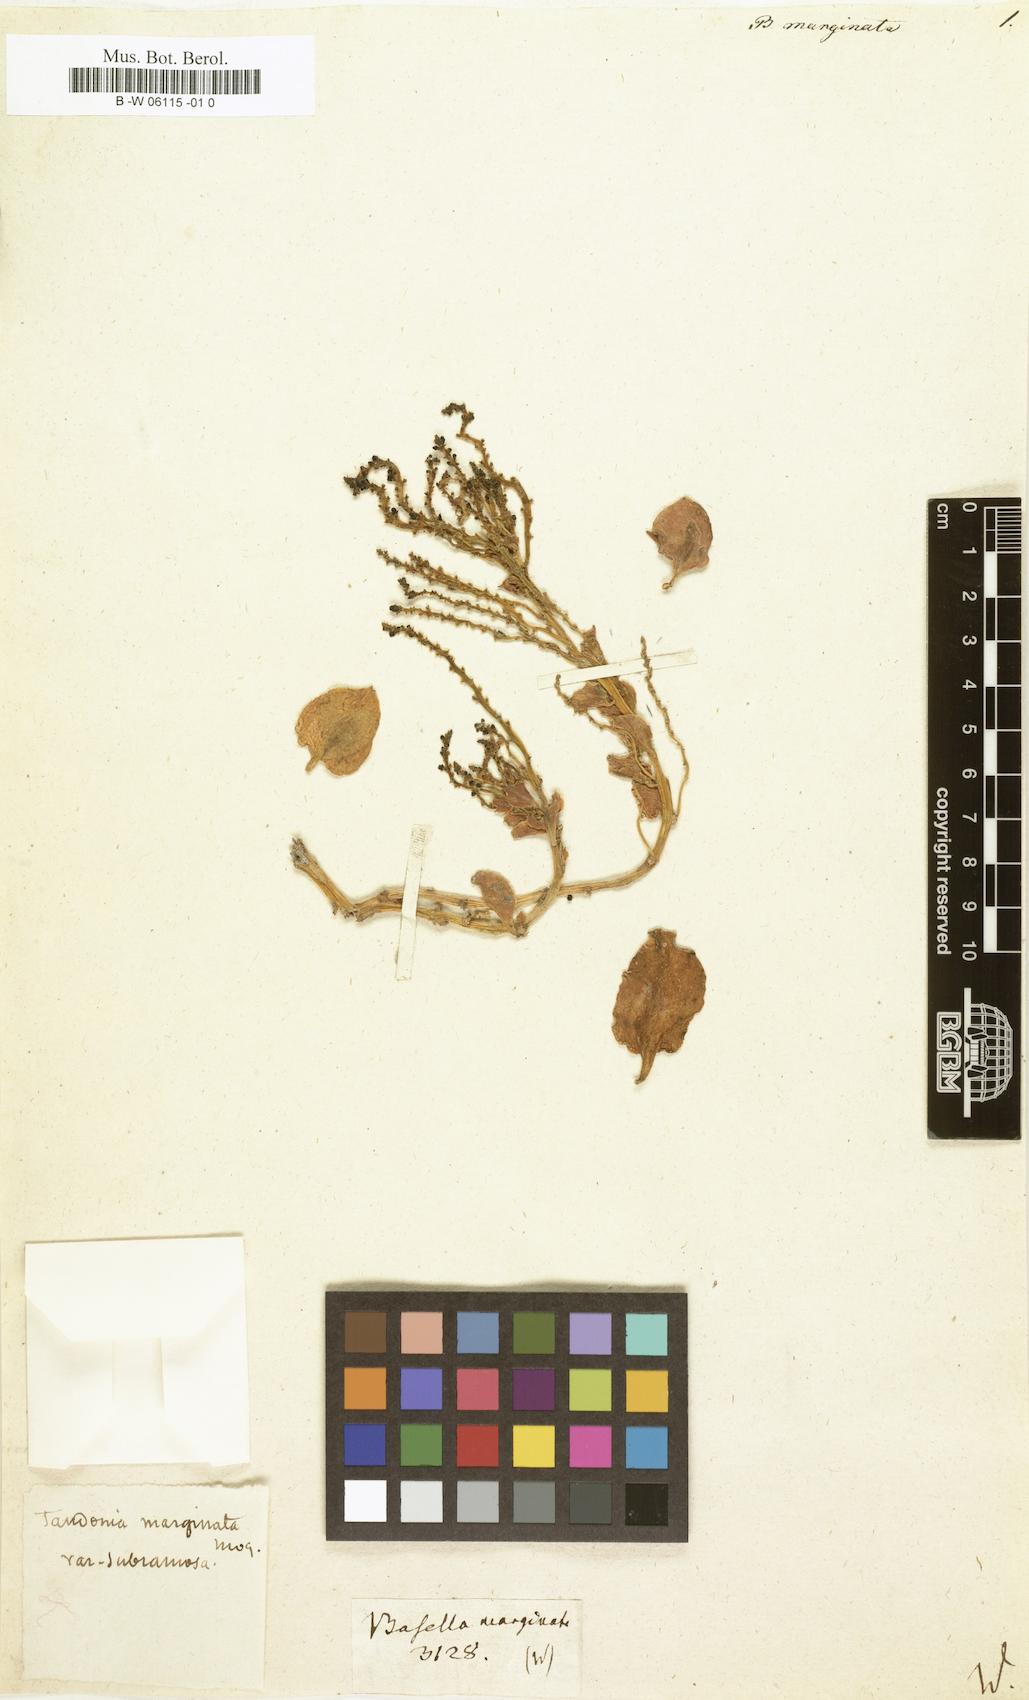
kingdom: Plantae
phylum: Tracheophyta
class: Magnoliopsida
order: Caryophyllales
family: Basellaceae
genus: Anredera
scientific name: Anredera marginata
